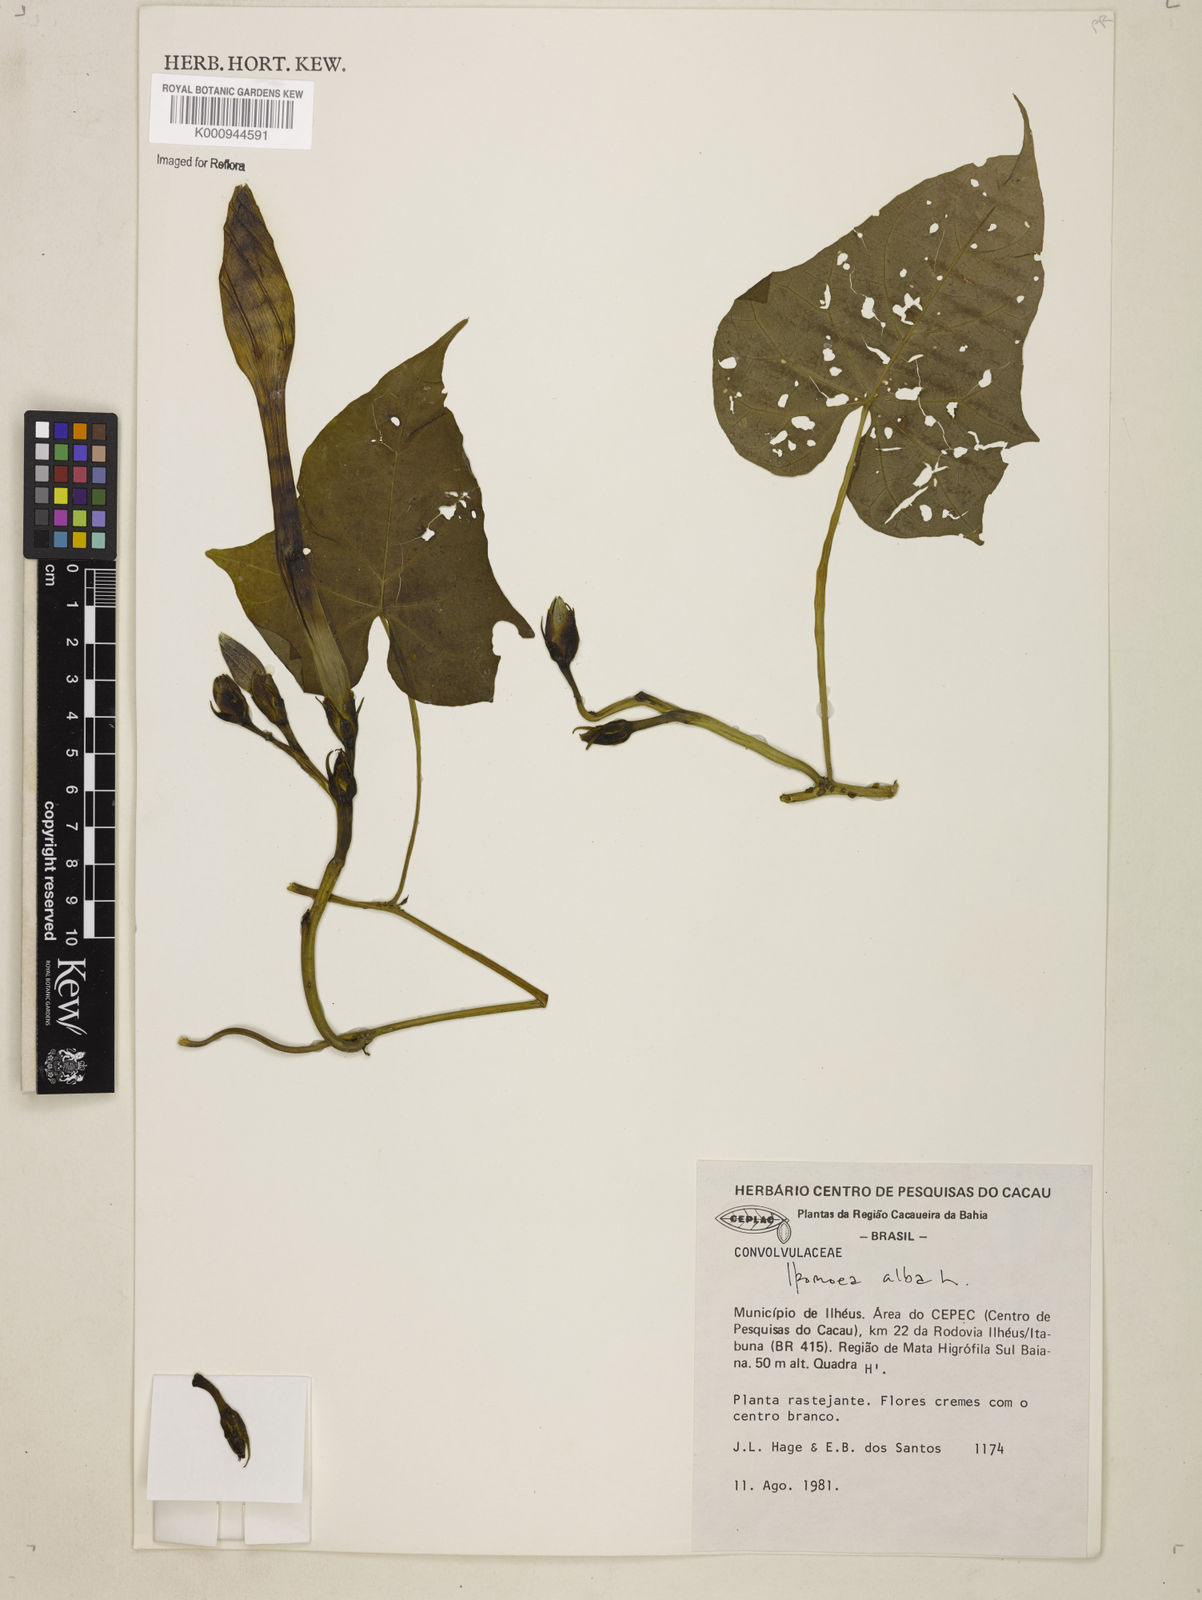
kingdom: Plantae
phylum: Tracheophyta
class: Magnoliopsida
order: Solanales
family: Convolvulaceae
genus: Ipomoea
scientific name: Ipomoea alba
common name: Moonflower
